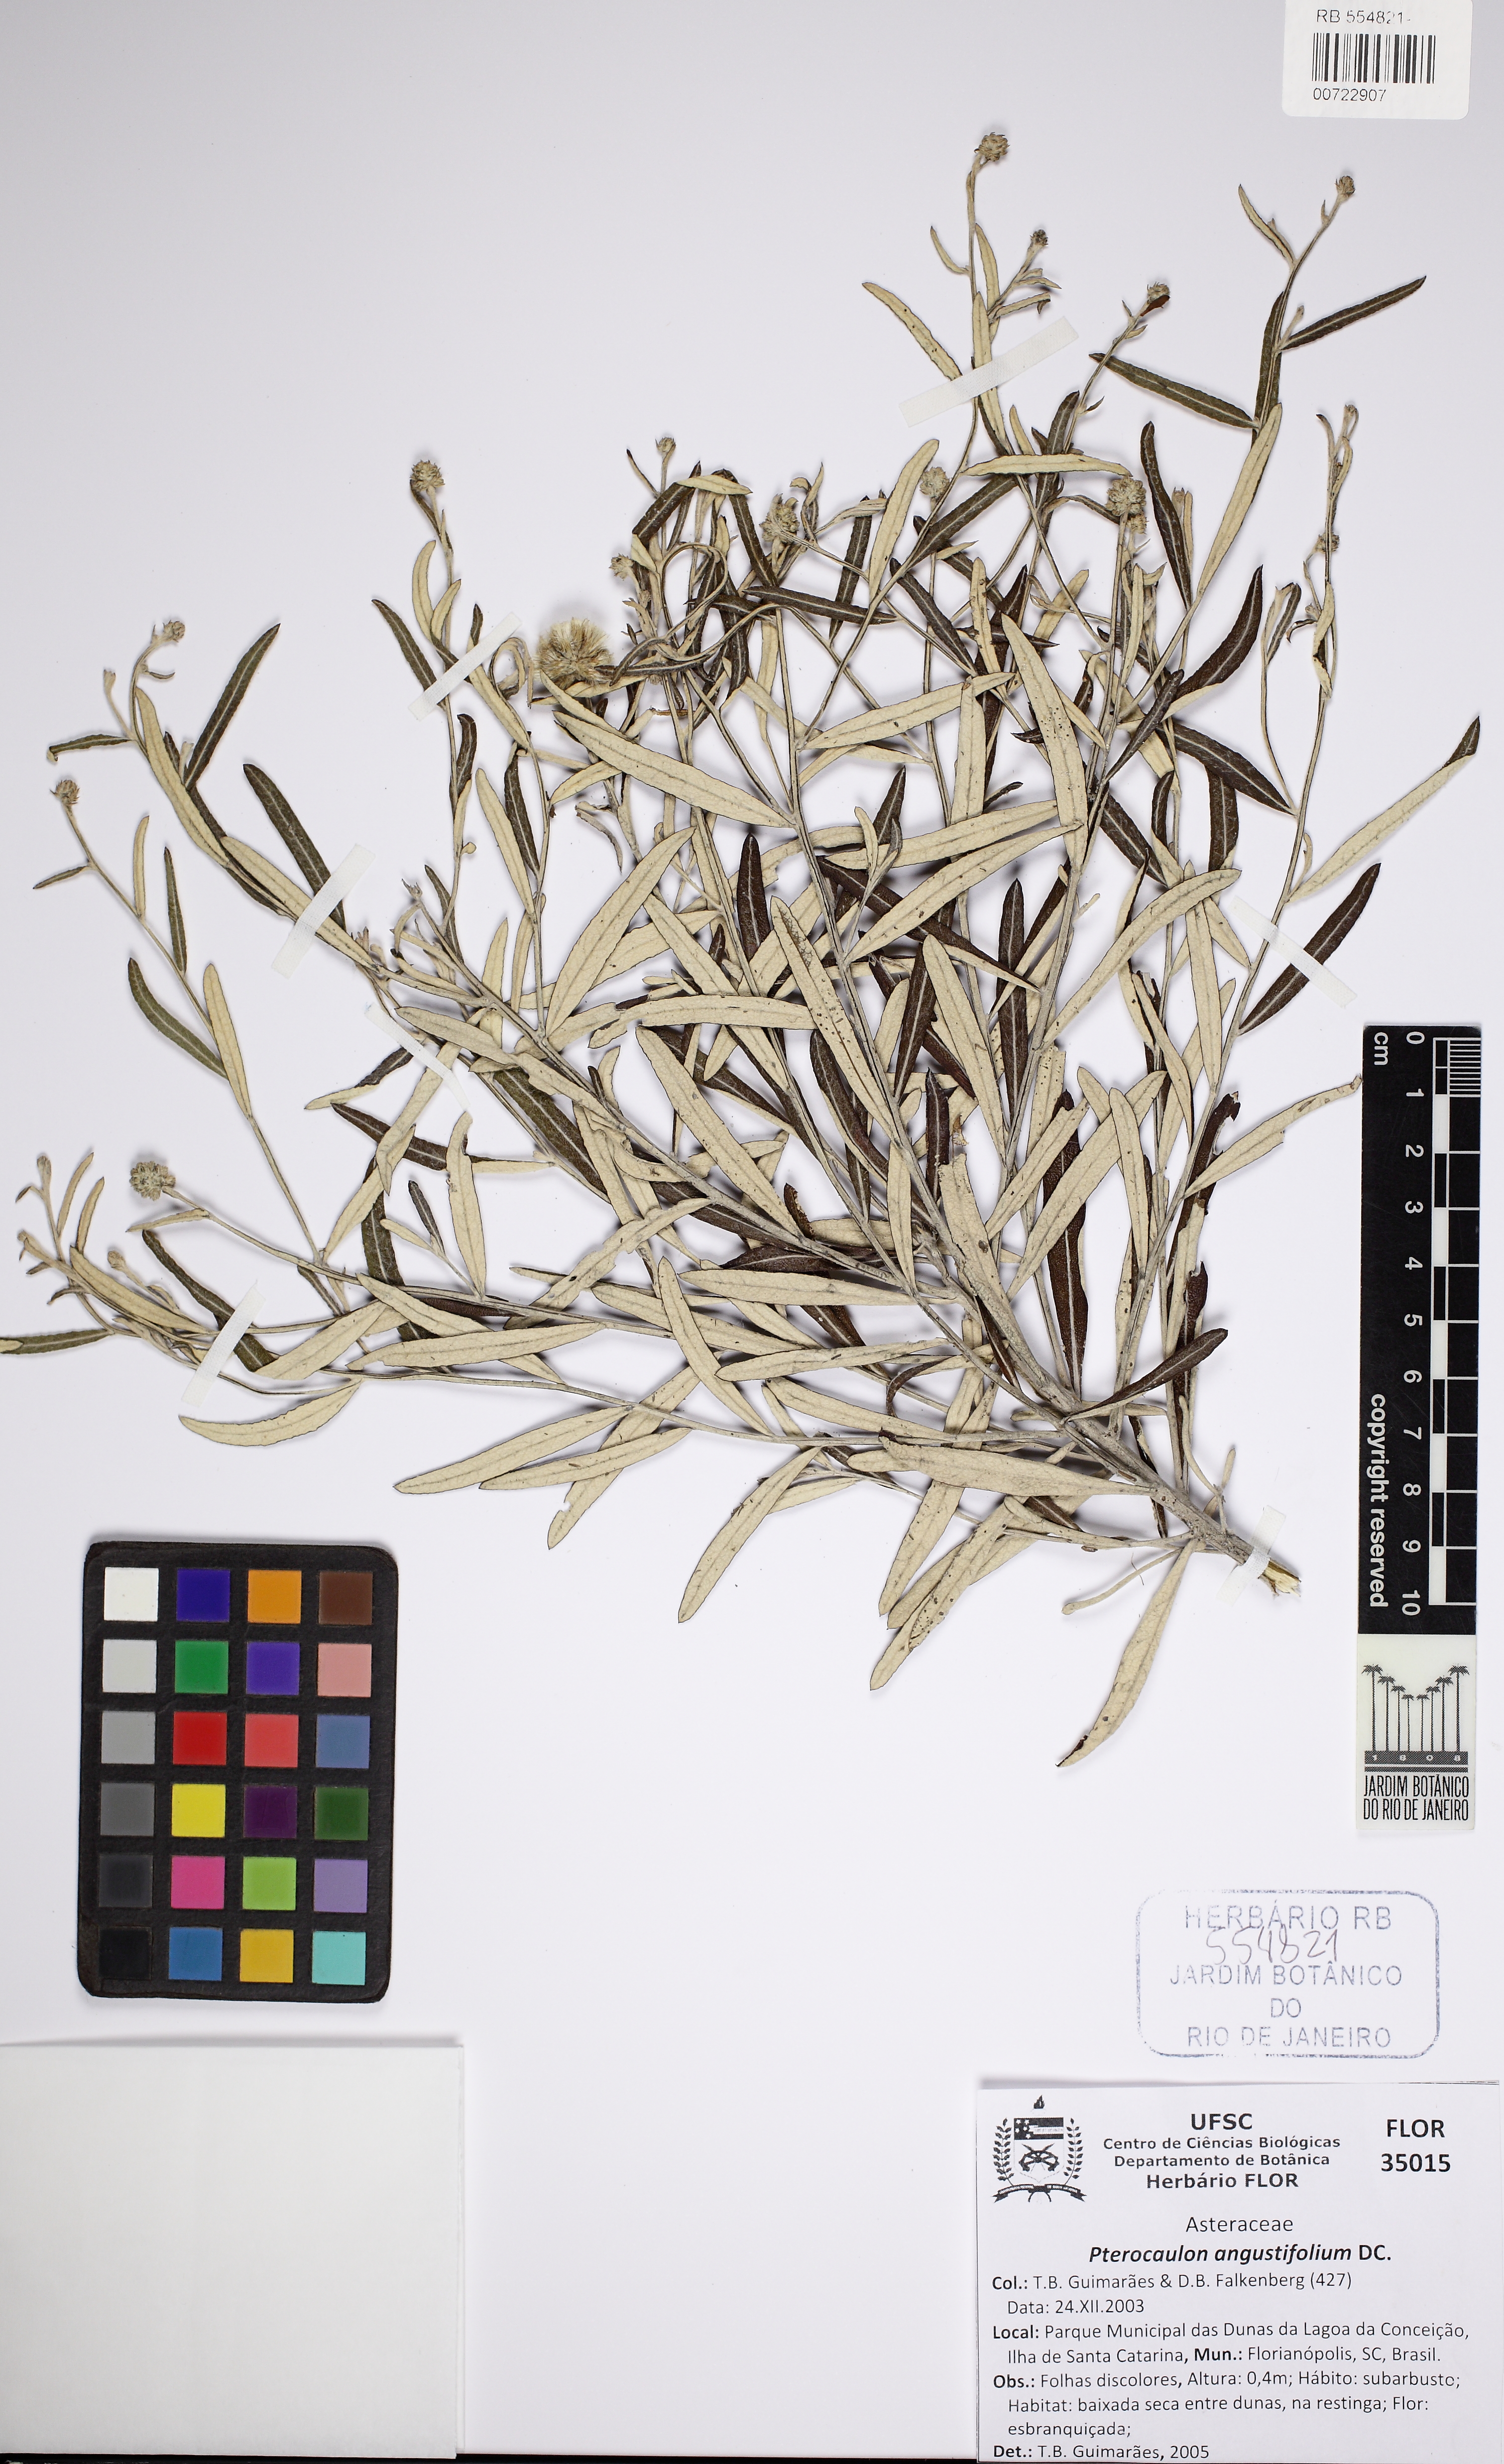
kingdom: Plantae
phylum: Tracheophyta
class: Magnoliopsida
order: Asterales
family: Asteraceae
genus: Pterocaulon
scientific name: Pterocaulon angustifolium
